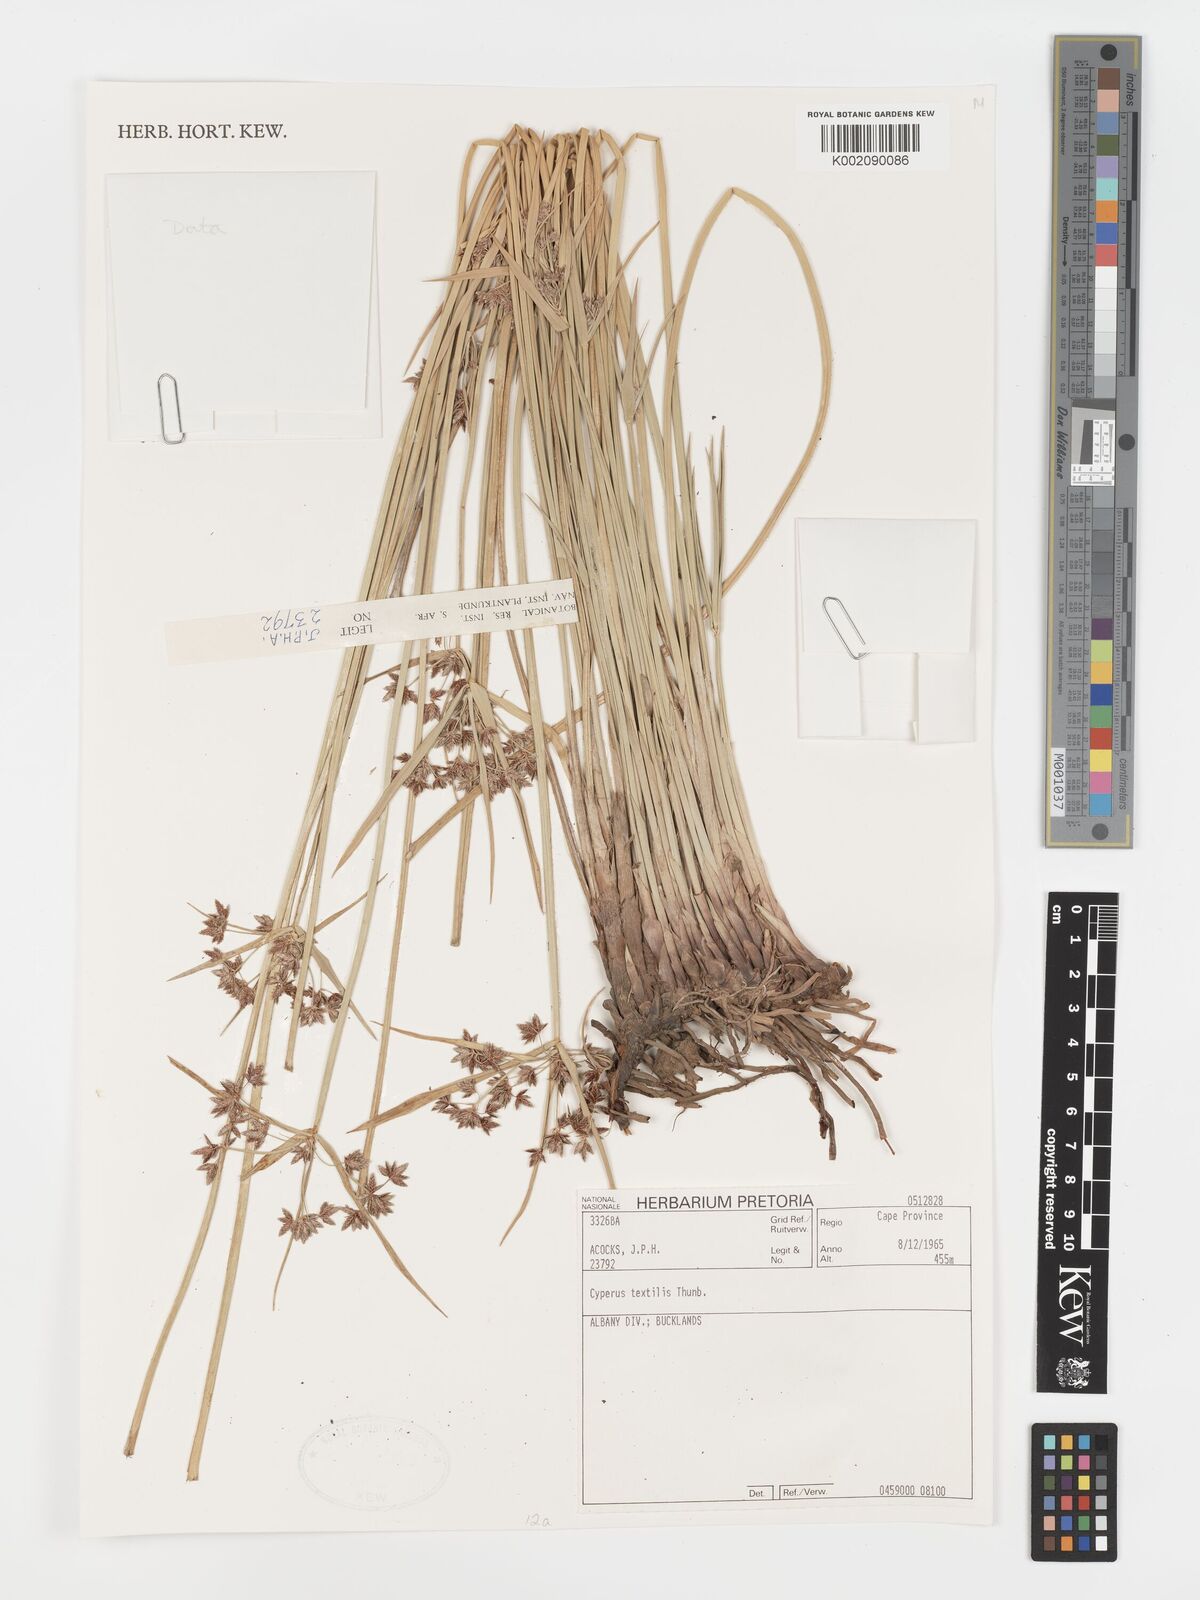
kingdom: Plantae
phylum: Tracheophyta
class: Liliopsida
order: Poales
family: Cyperaceae
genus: Cyperus
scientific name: Cyperus alternifolius
